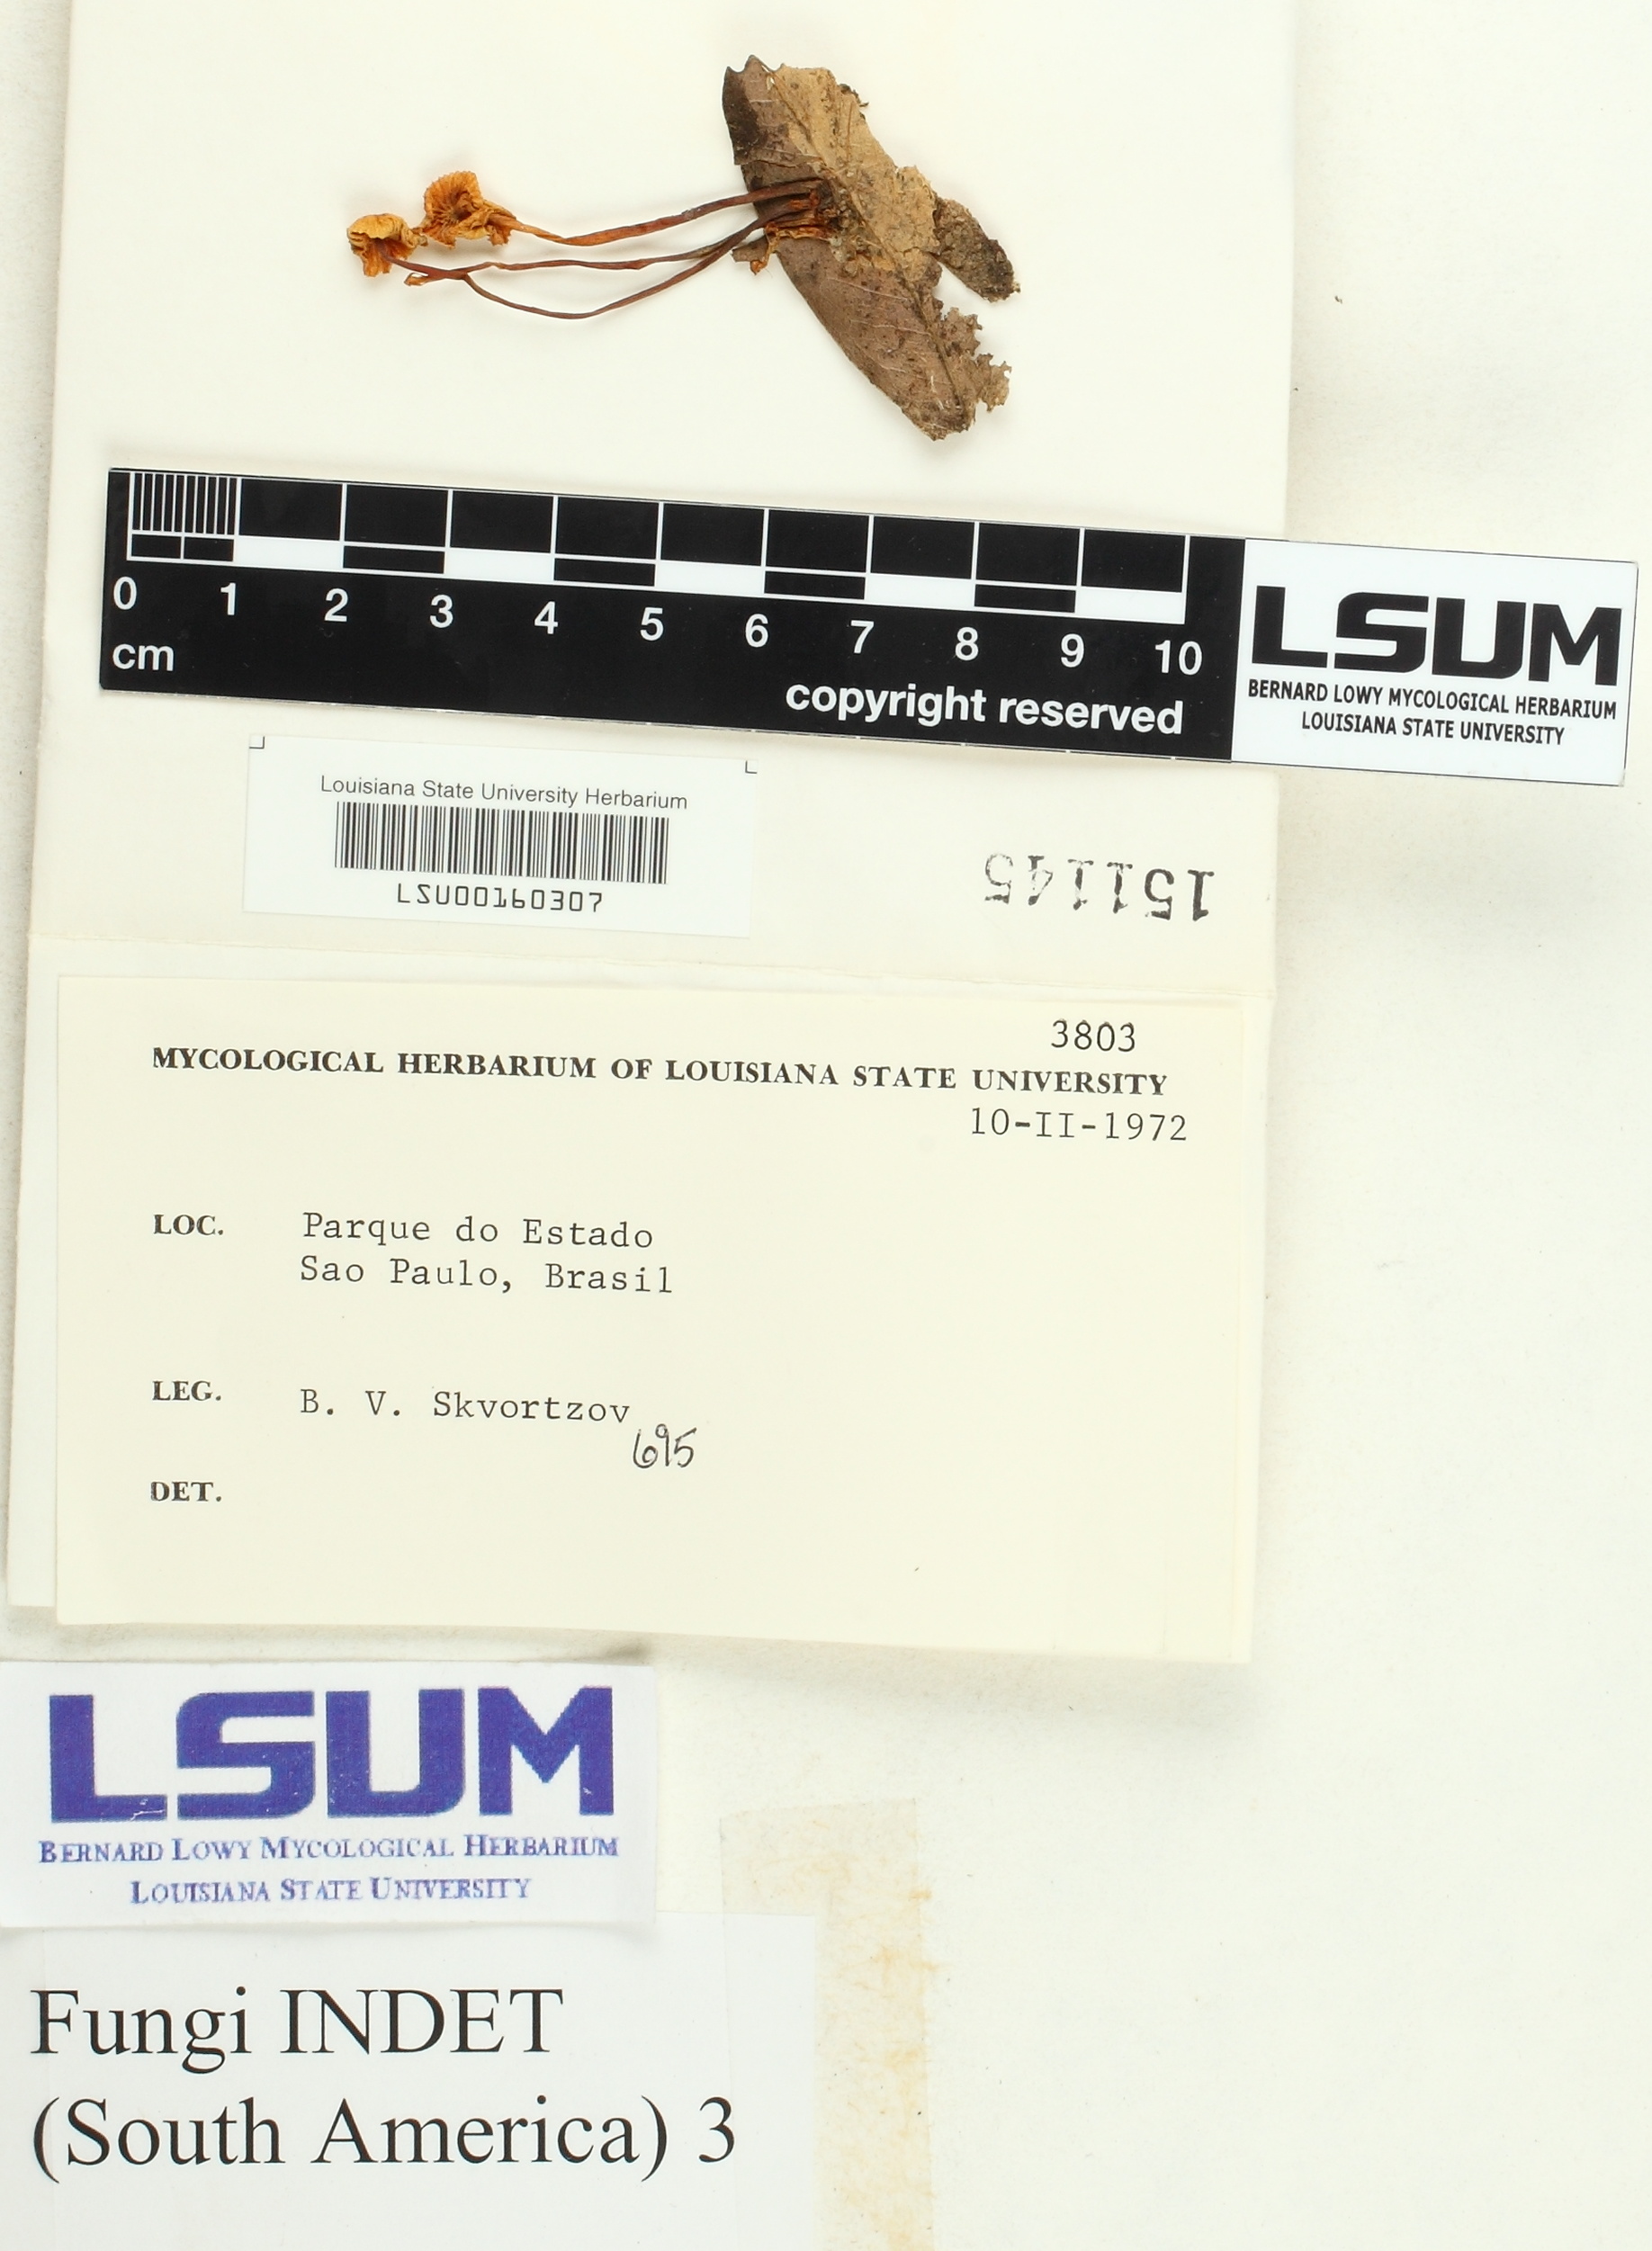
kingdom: Fungi
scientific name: Fungi
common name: Fungi
